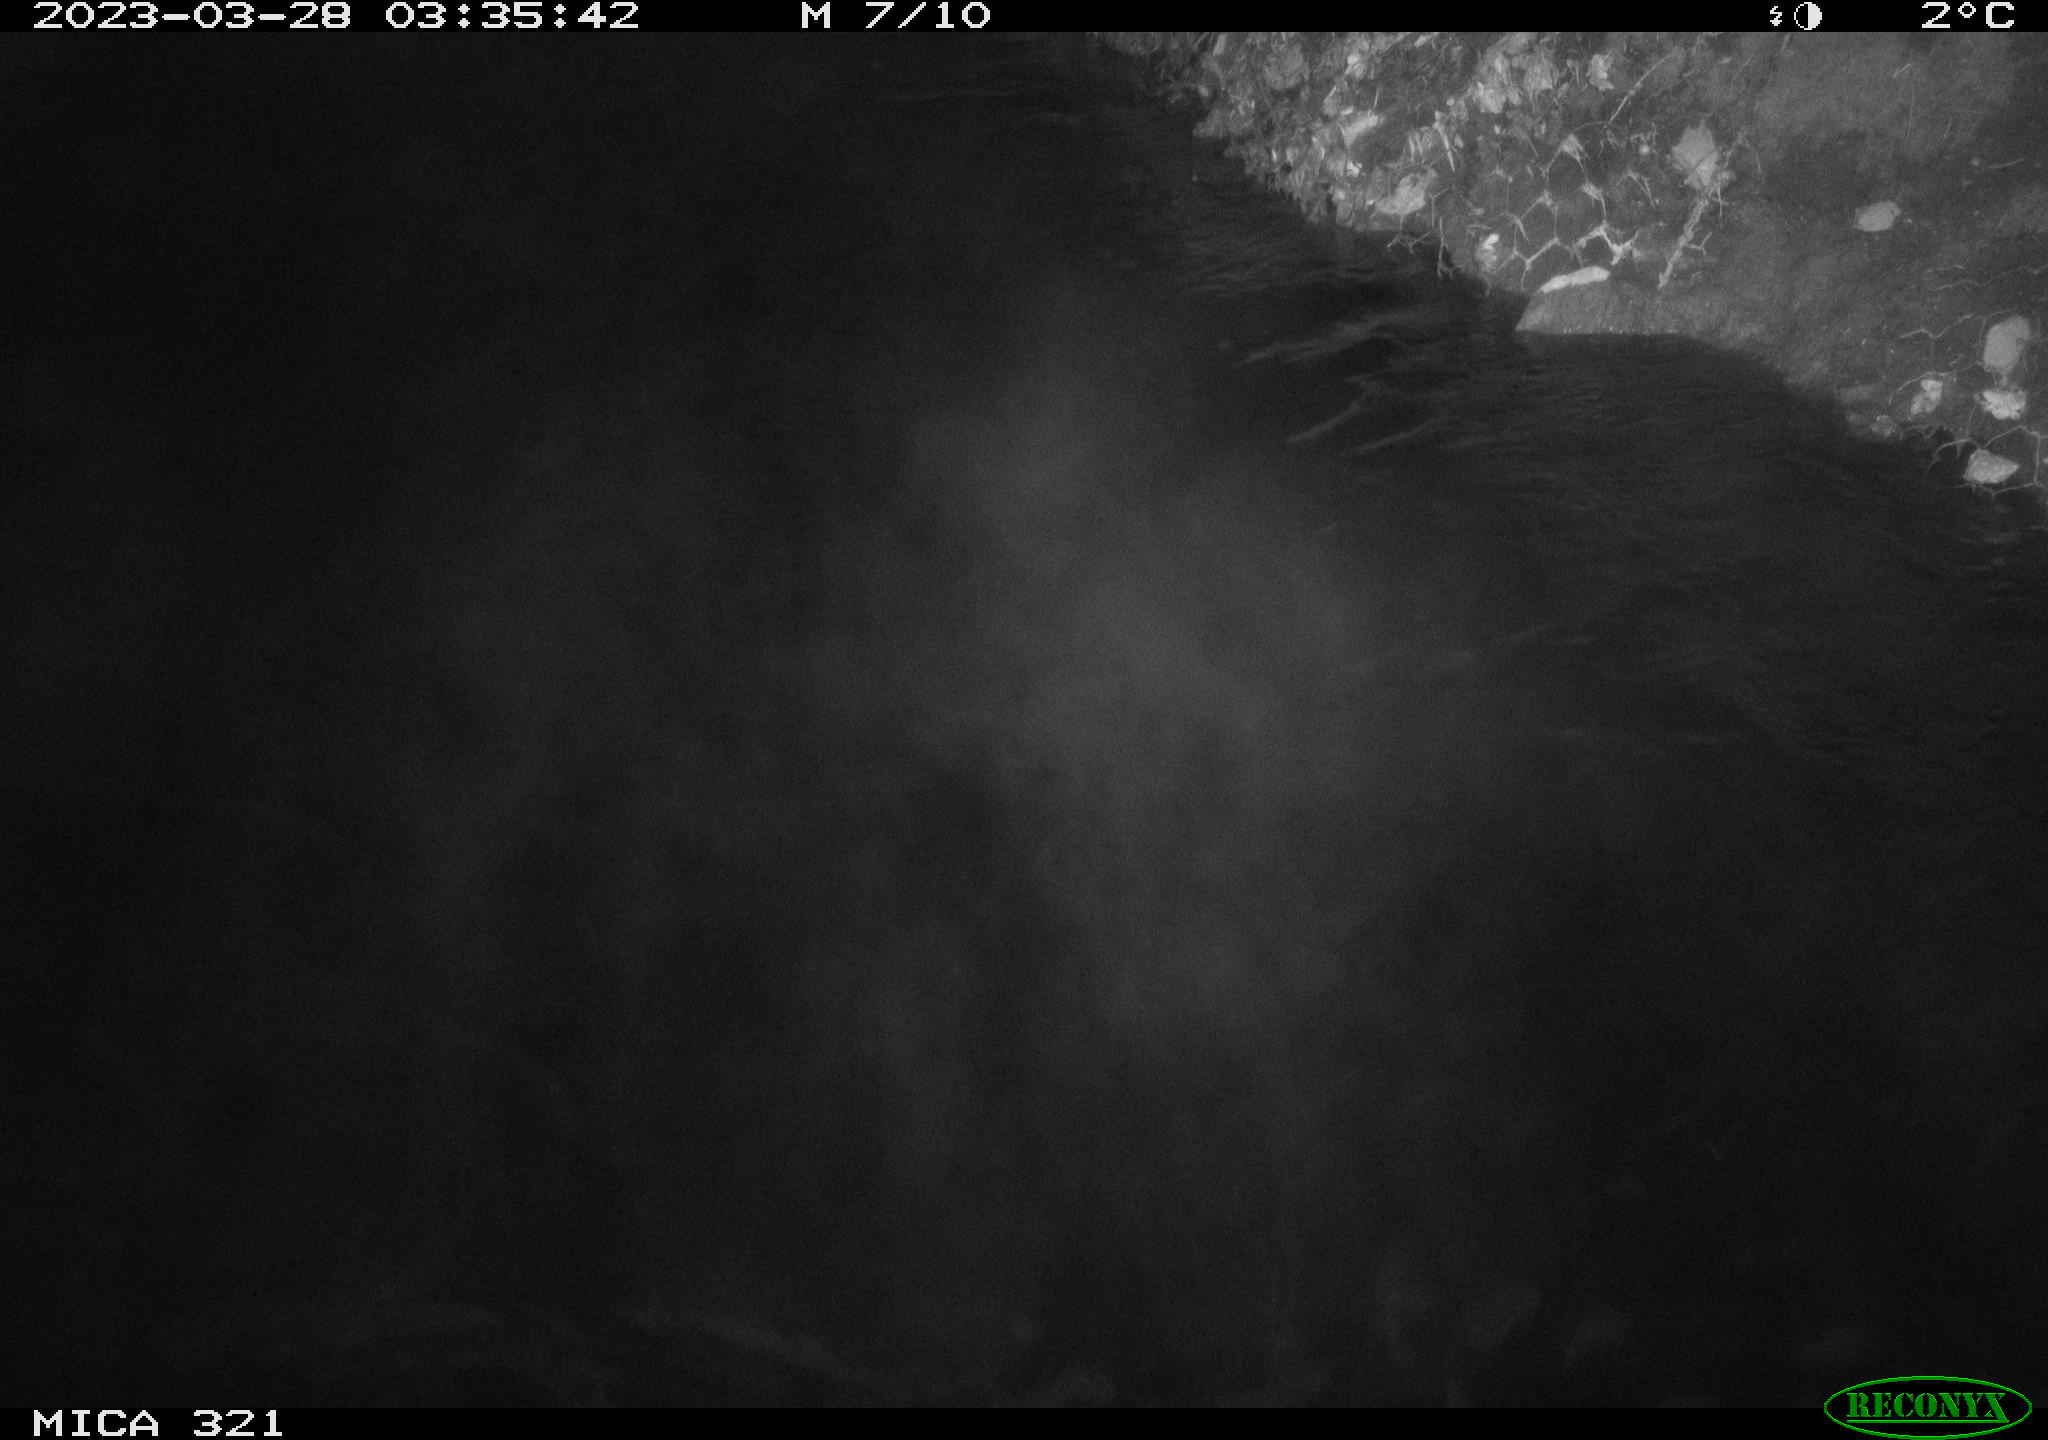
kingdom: Animalia
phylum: Chordata
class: Aves
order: Anseriformes
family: Anatidae
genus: Anas
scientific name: Anas
